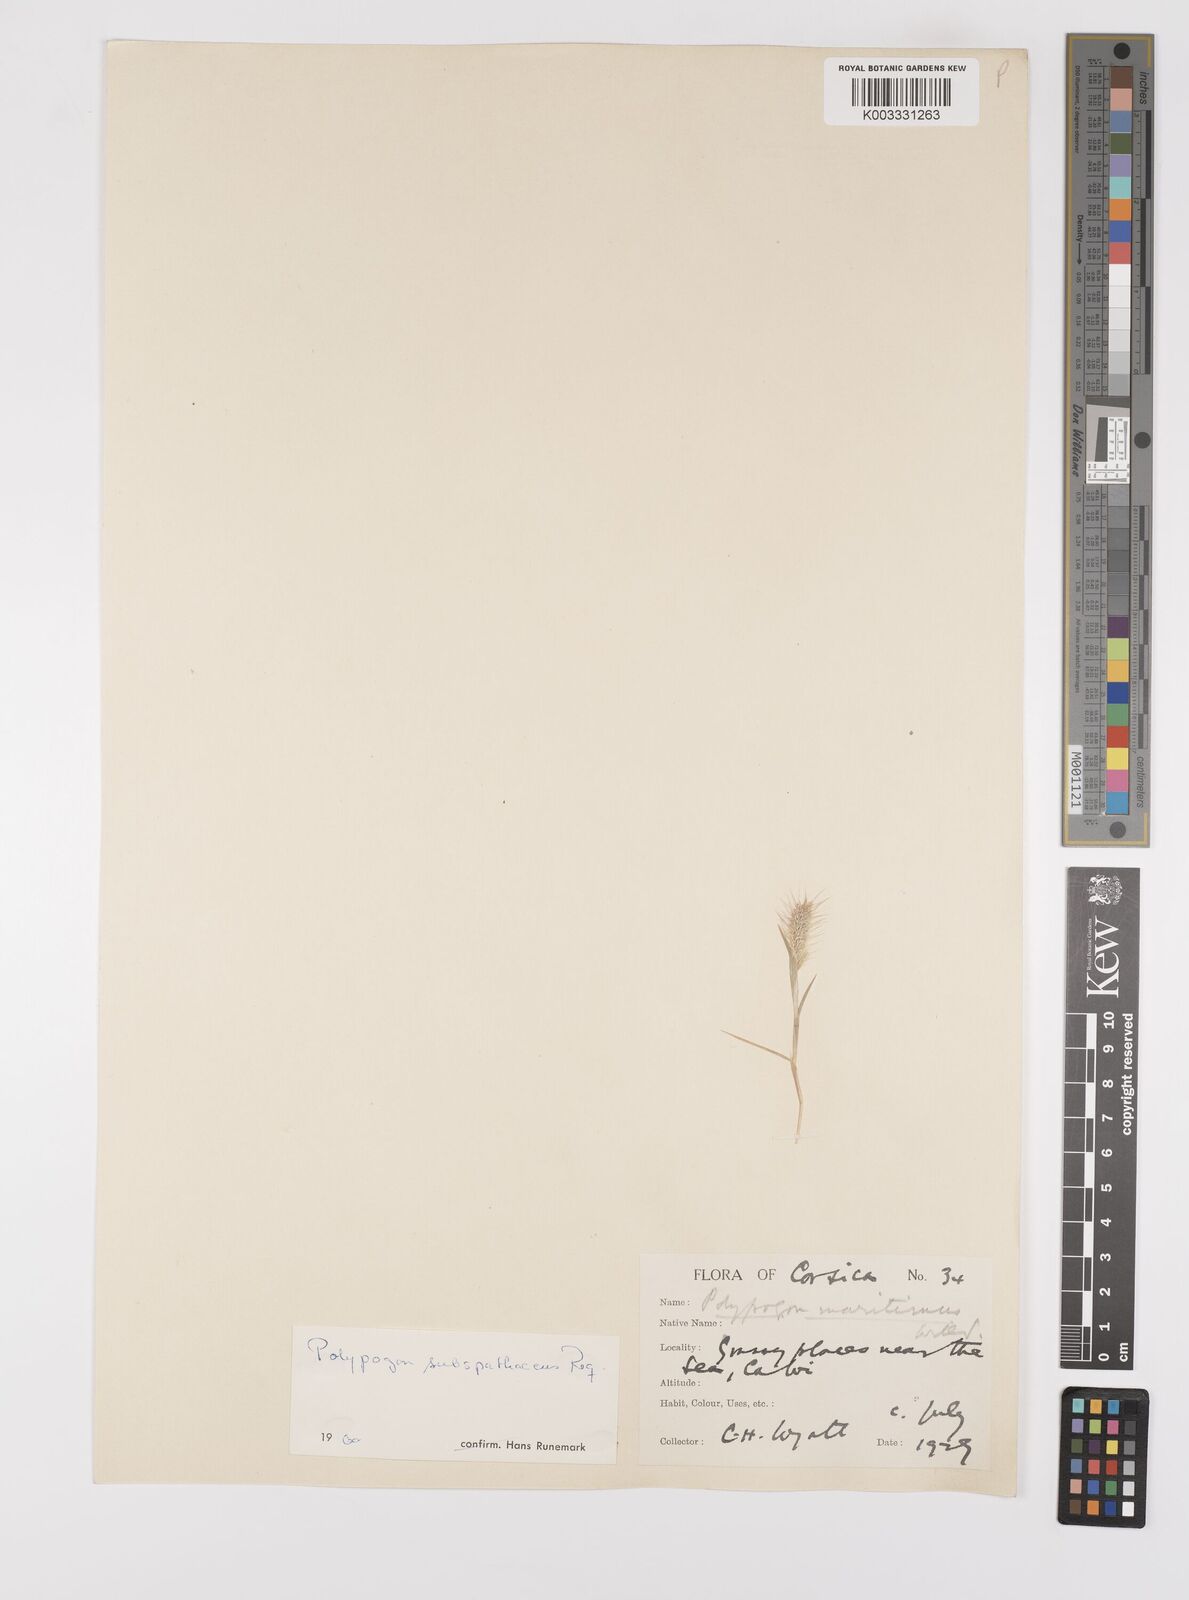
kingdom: Plantae
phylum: Tracheophyta
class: Liliopsida
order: Poales
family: Poaceae
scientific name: Poaceae
